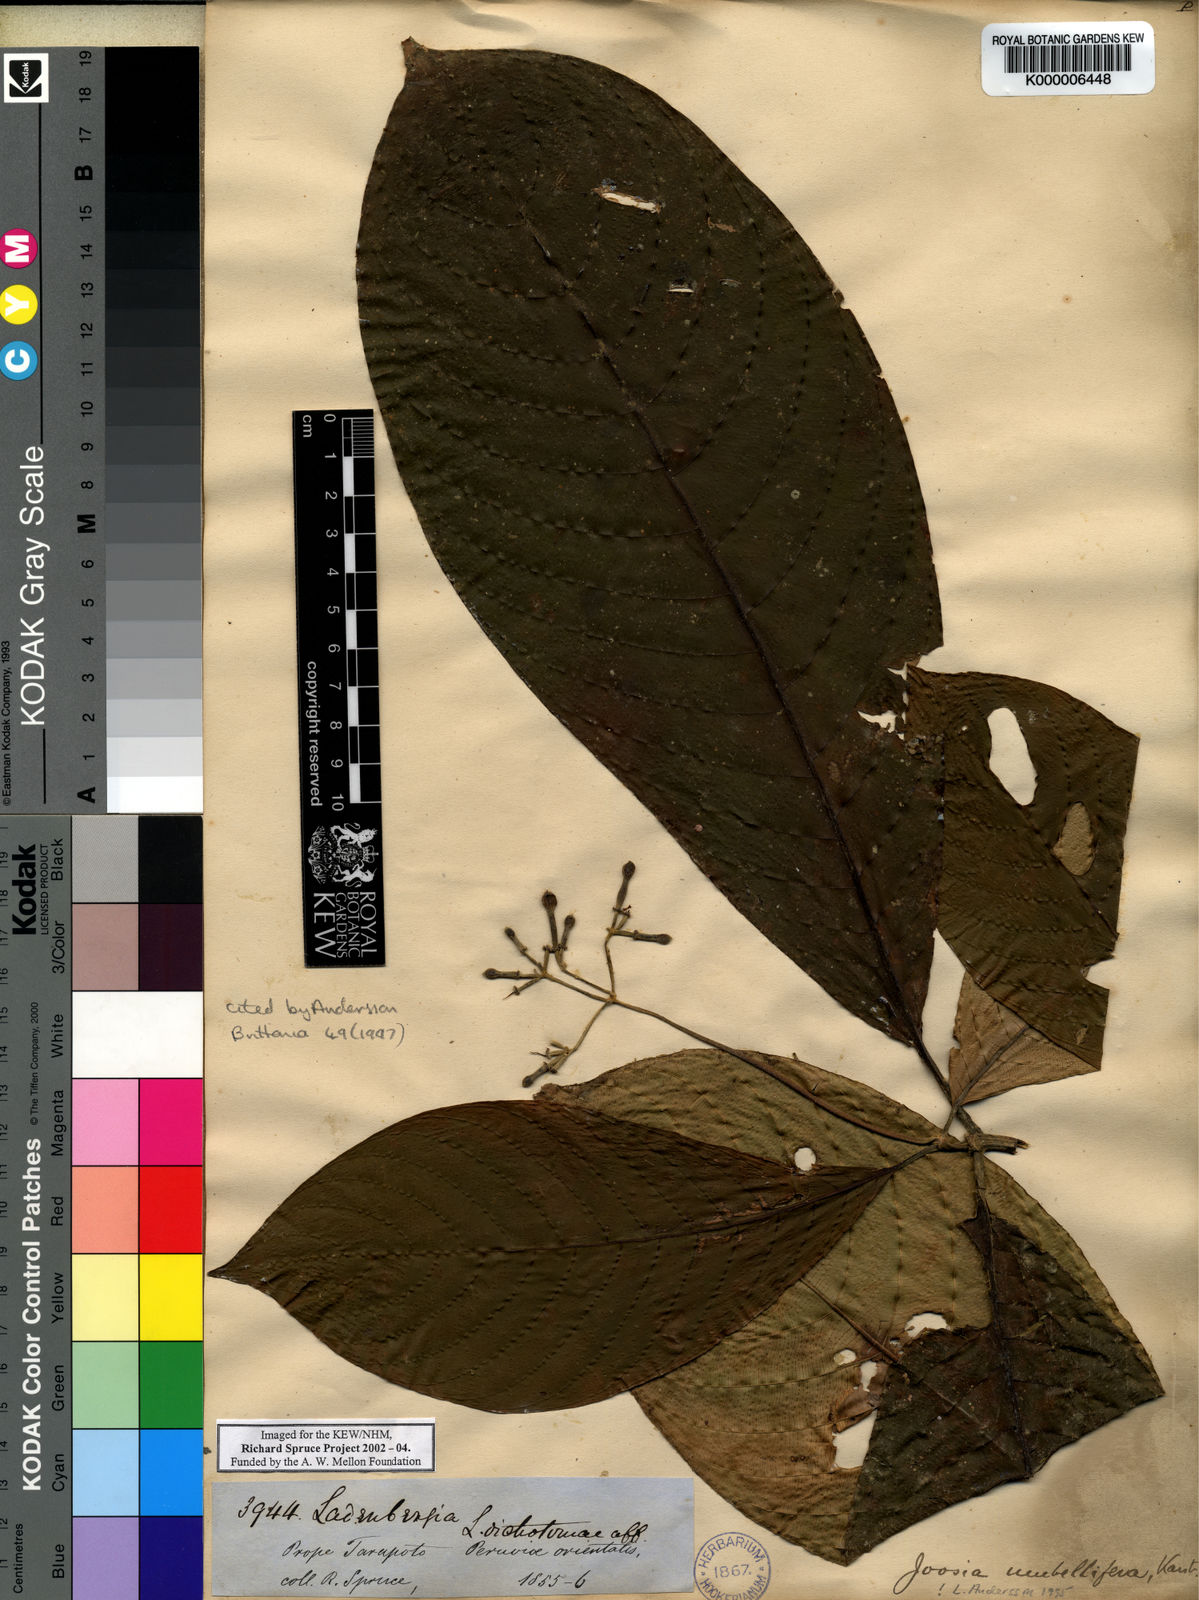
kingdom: Plantae
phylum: Tracheophyta
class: Magnoliopsida
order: Gentianales
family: Rubiaceae
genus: Joosia
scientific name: Joosia umbellifera
